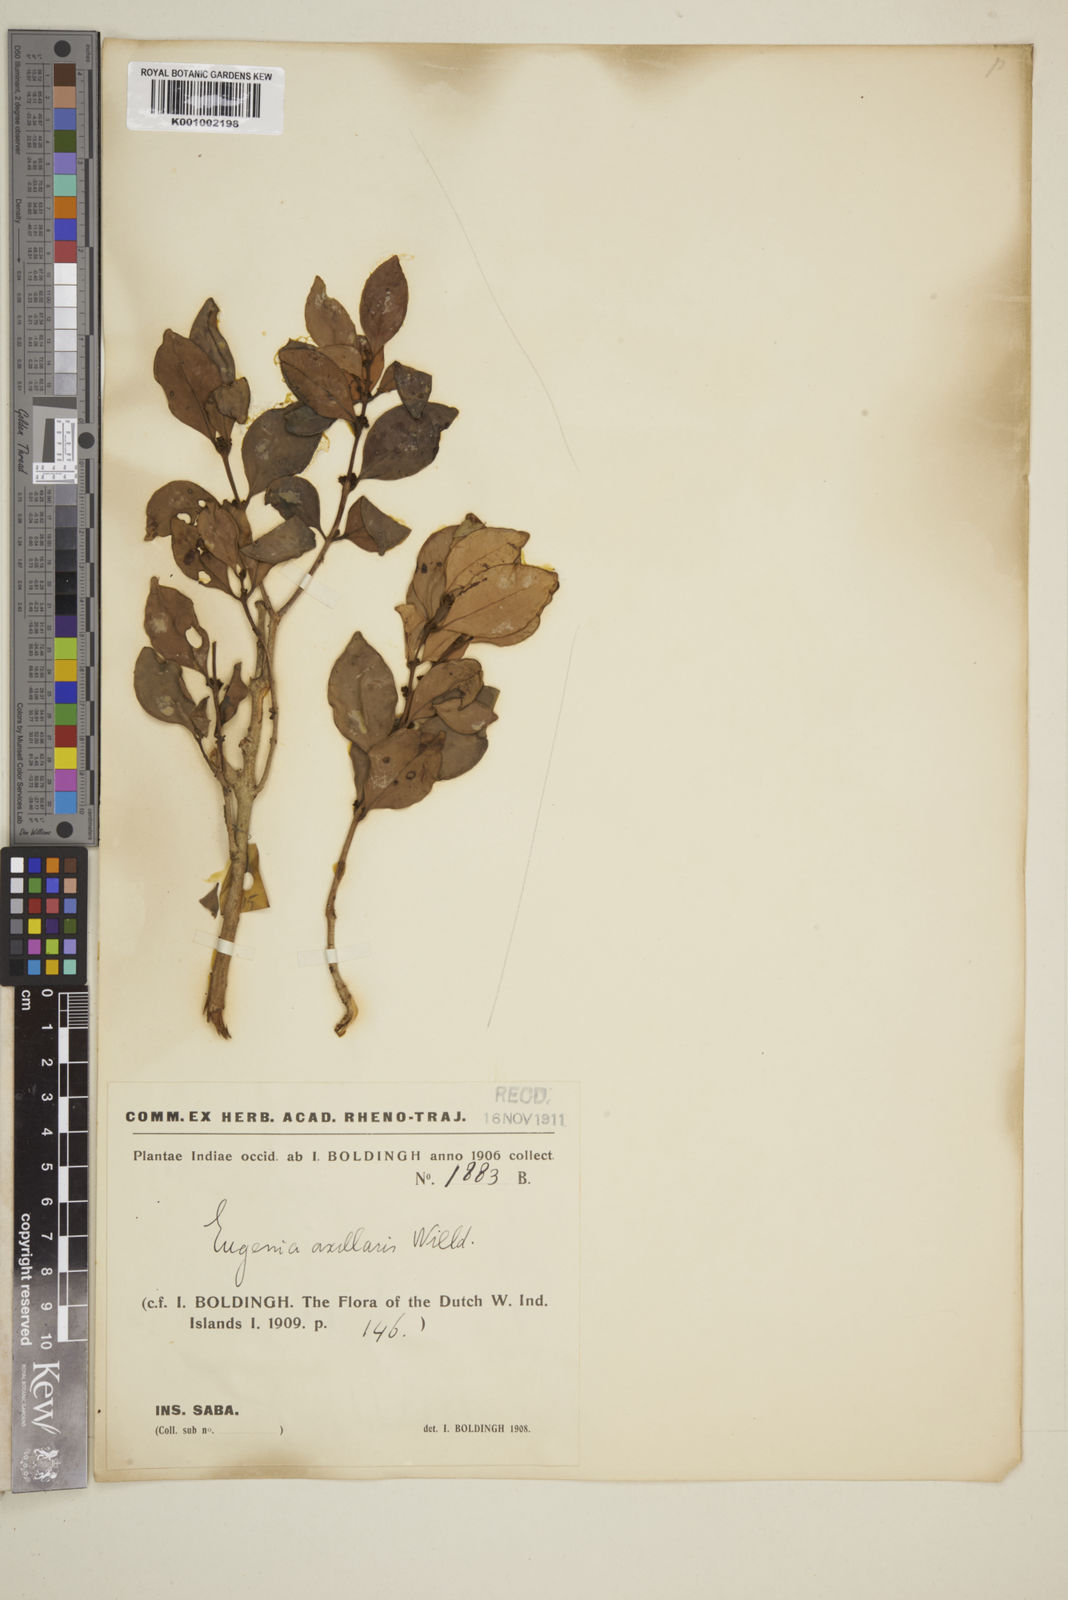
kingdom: Plantae
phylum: Tracheophyta
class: Magnoliopsida
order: Myrtales
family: Myrtaceae
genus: Eugenia
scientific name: Eugenia axillaris
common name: Choaky berry
